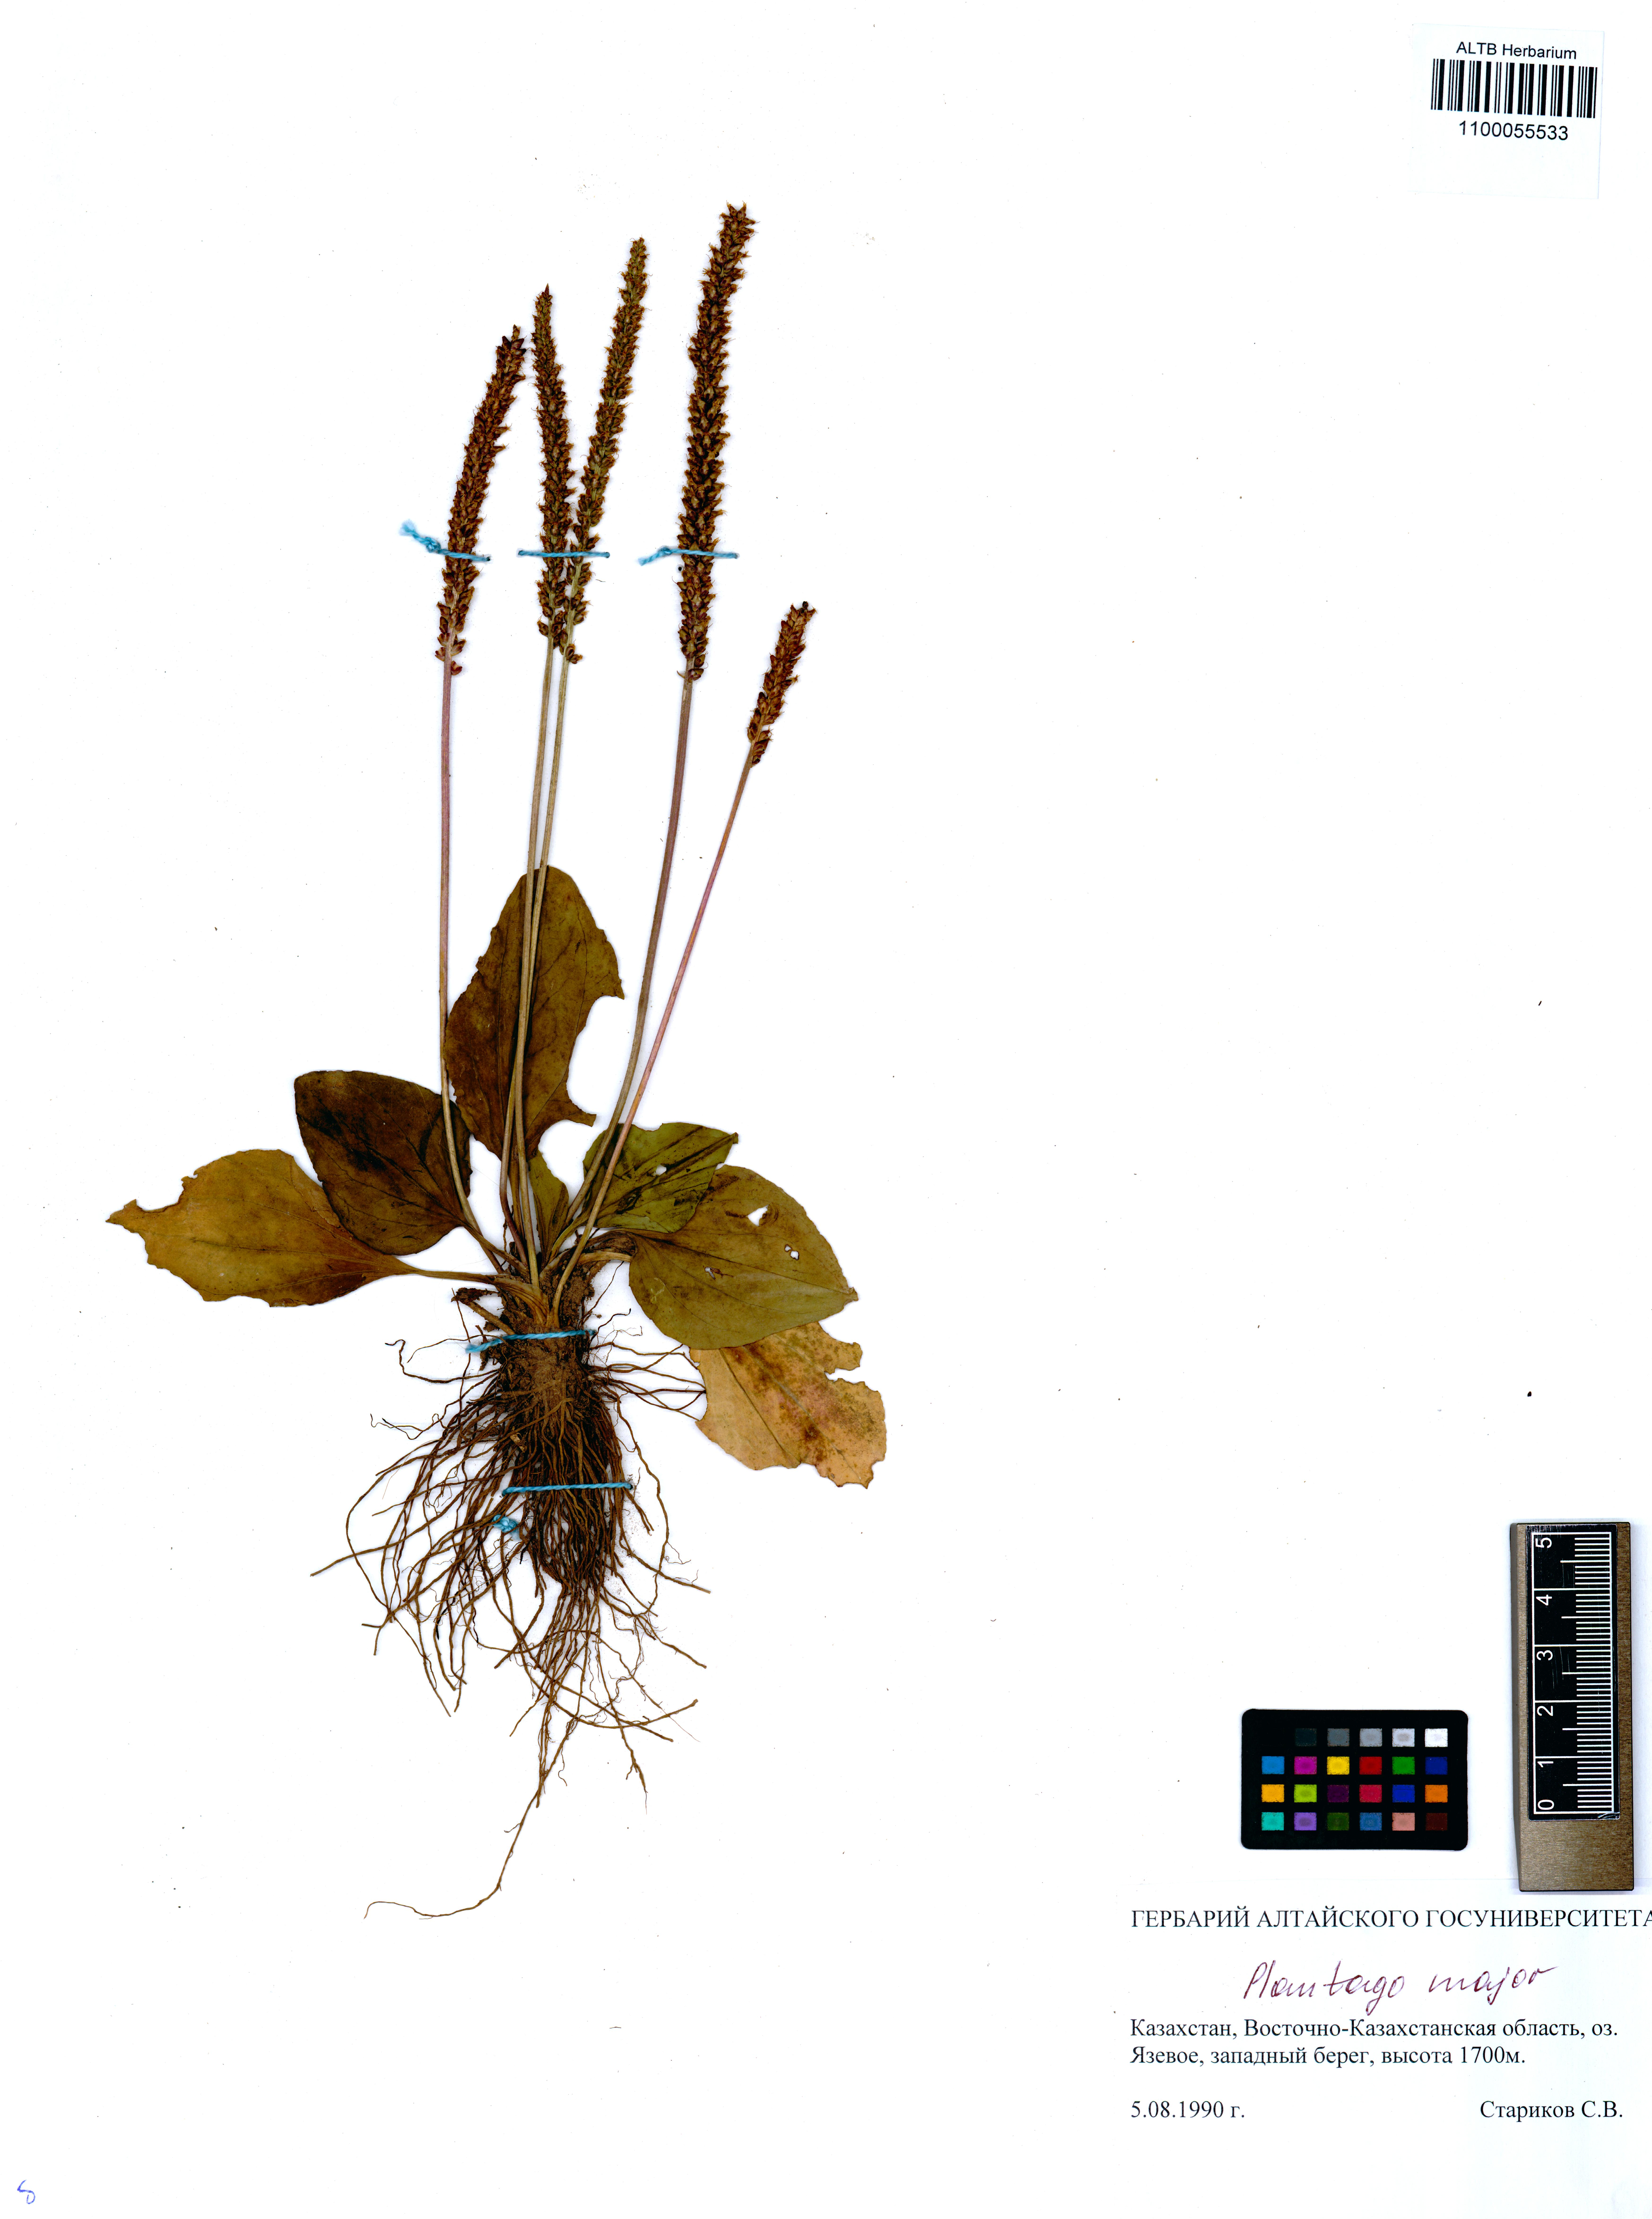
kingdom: Plantae
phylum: Tracheophyta
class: Magnoliopsida
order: Lamiales
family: Plantaginaceae
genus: Plantago
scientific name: Plantago major
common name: Common plantain
